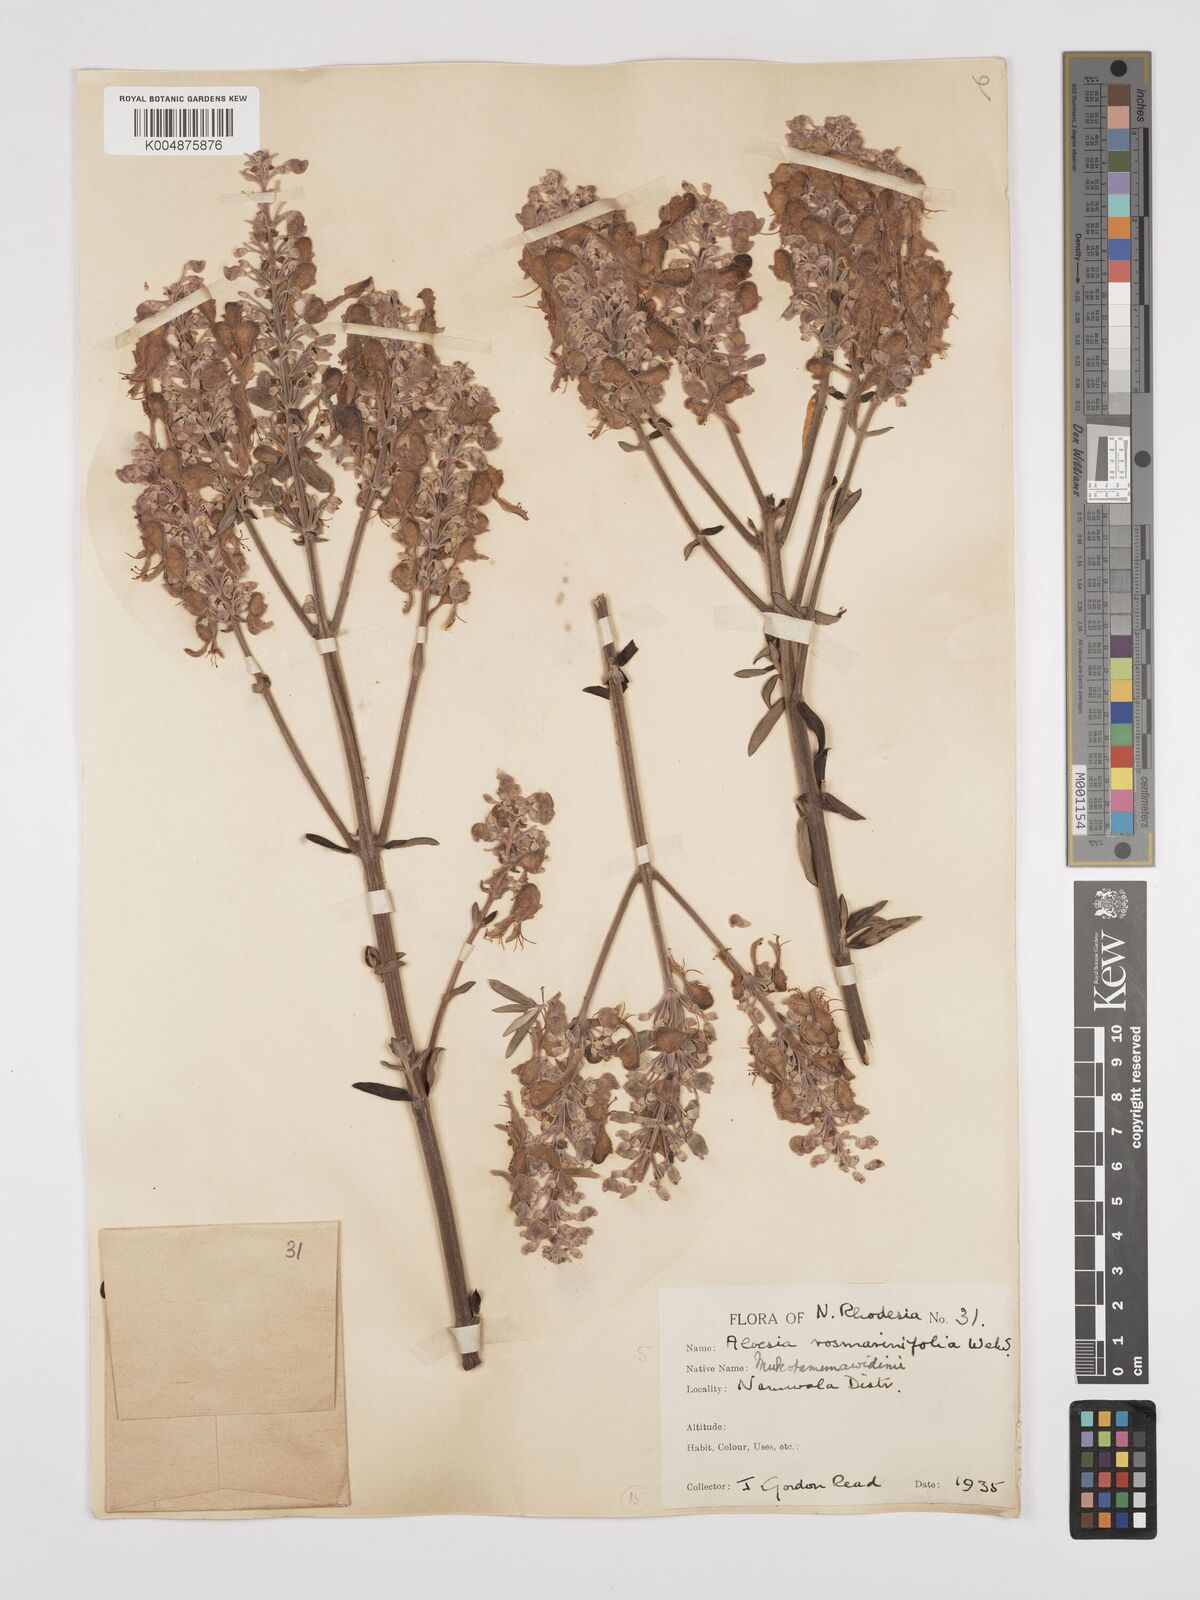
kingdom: Plantae
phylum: Tracheophyta
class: Magnoliopsida
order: Lamiales
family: Lamiaceae
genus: Alvesia
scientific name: Alvesia rosmarinifolia
